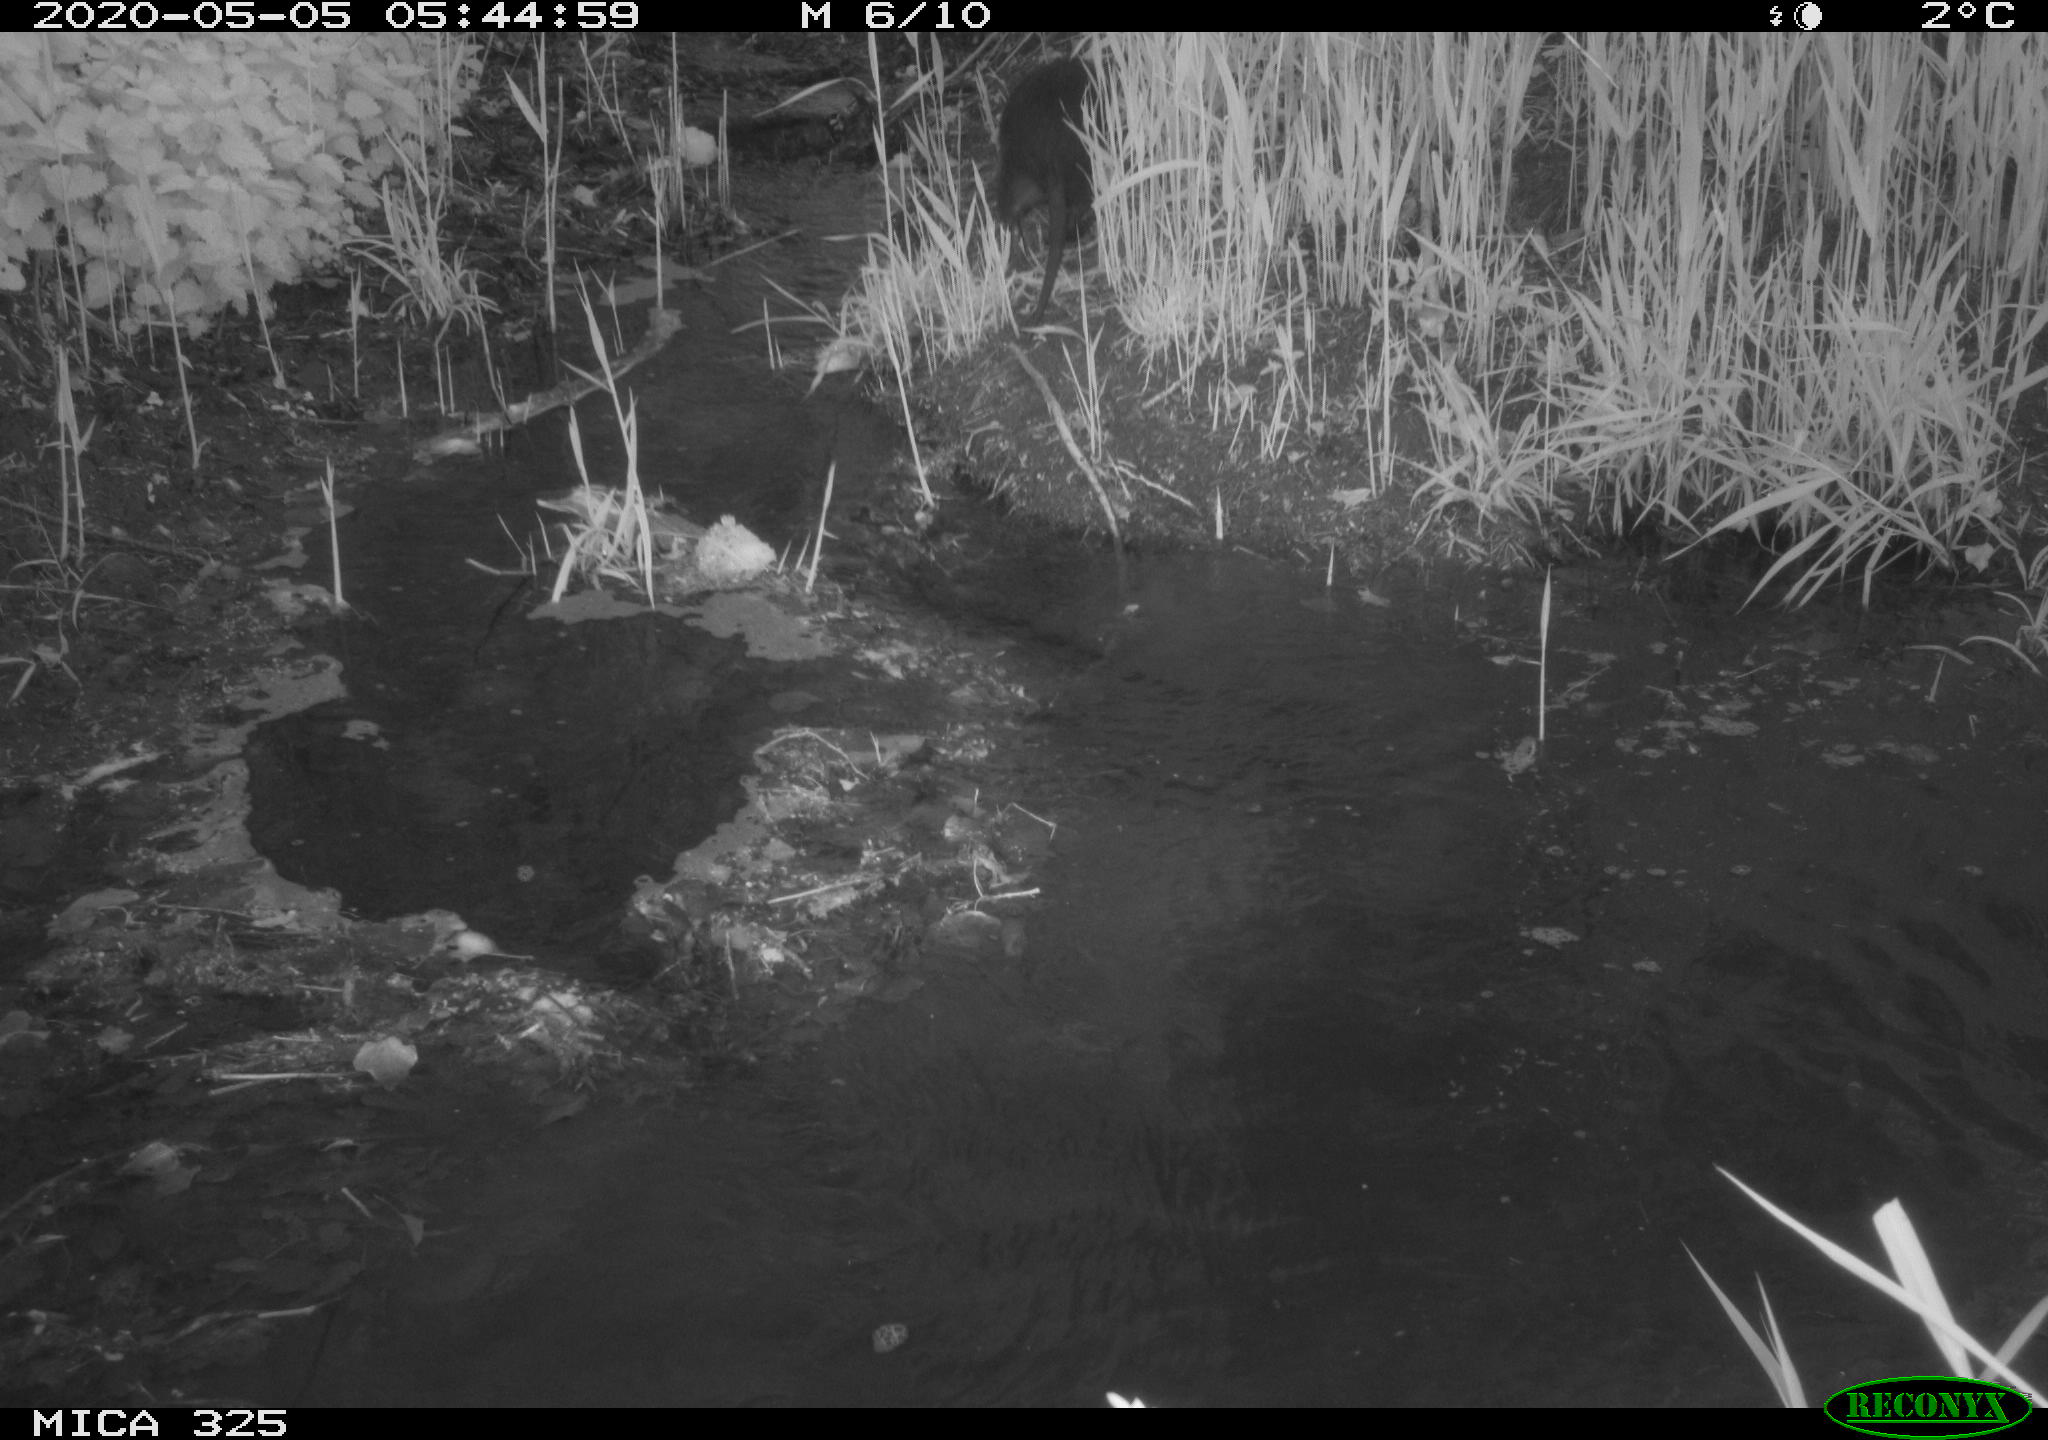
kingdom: Animalia
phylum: Chordata
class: Mammalia
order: Rodentia
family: Myocastoridae
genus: Myocastor
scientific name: Myocastor coypus
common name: Coypu
